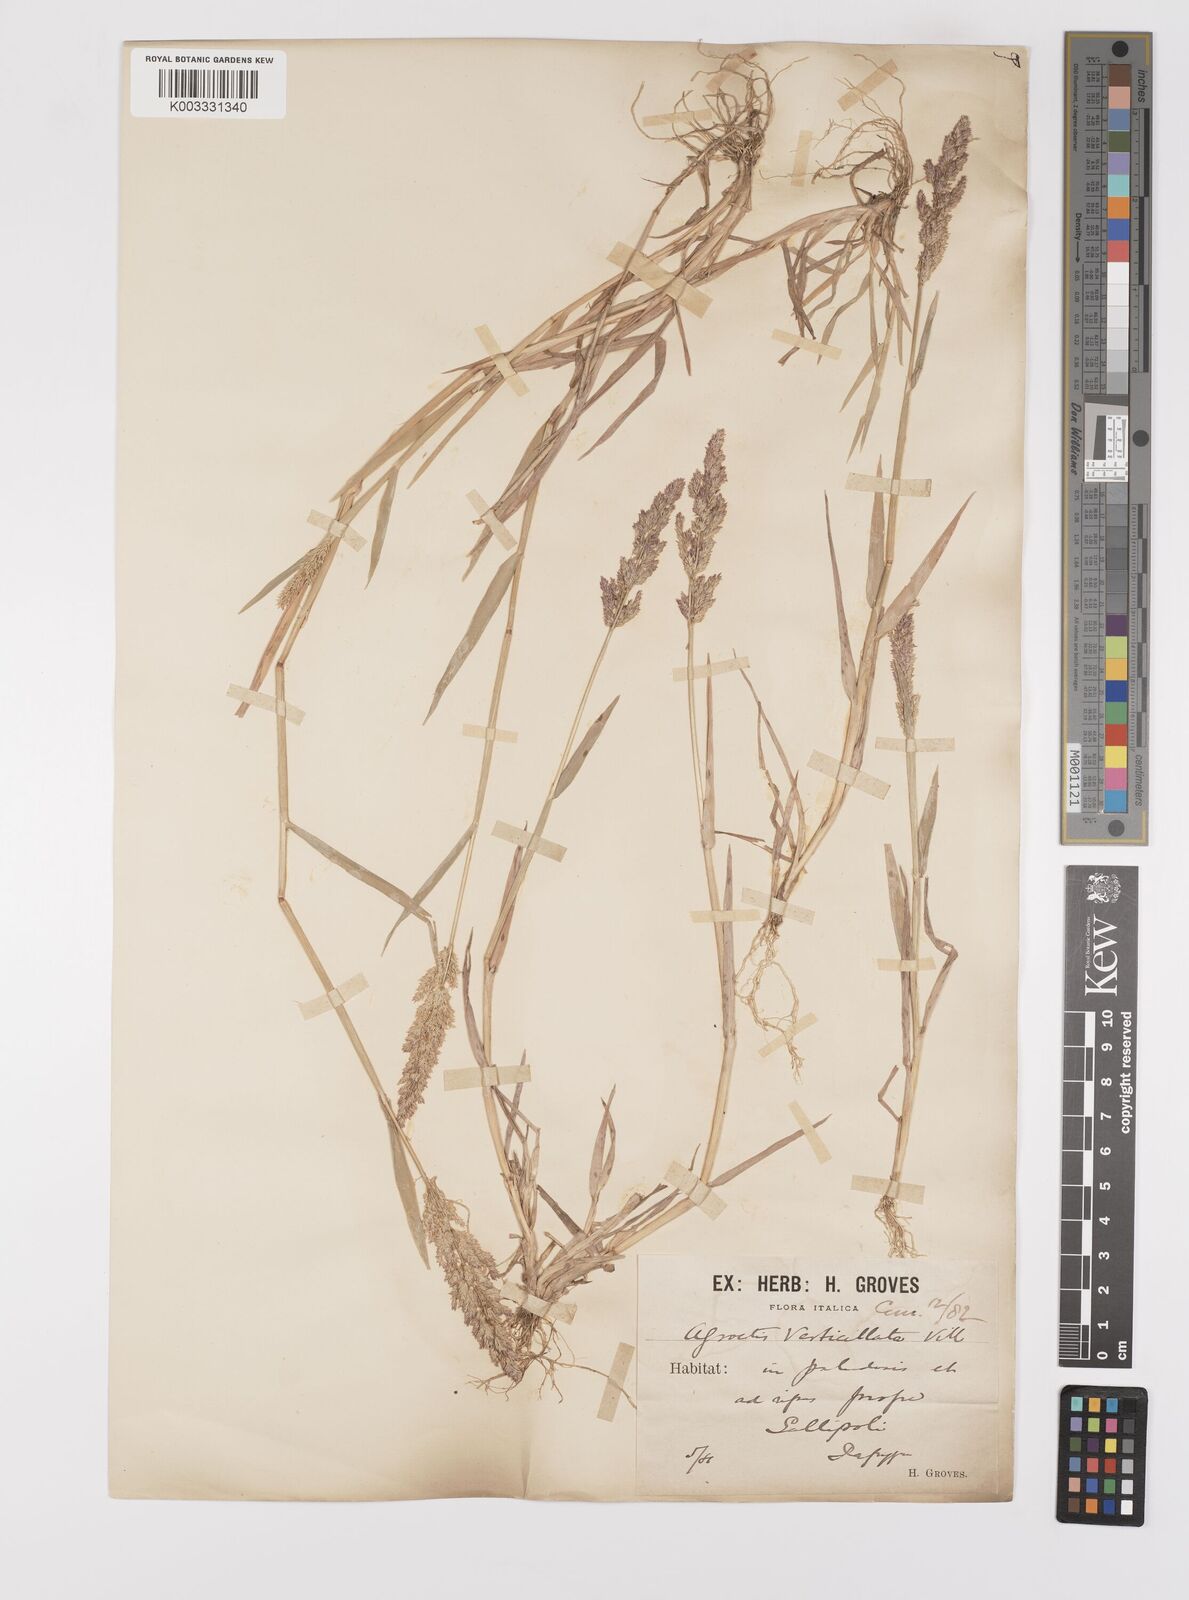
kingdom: Plantae
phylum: Tracheophyta
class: Liliopsida
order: Poales
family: Poaceae
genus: Polypogon
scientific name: Polypogon viridis
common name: Water bent
